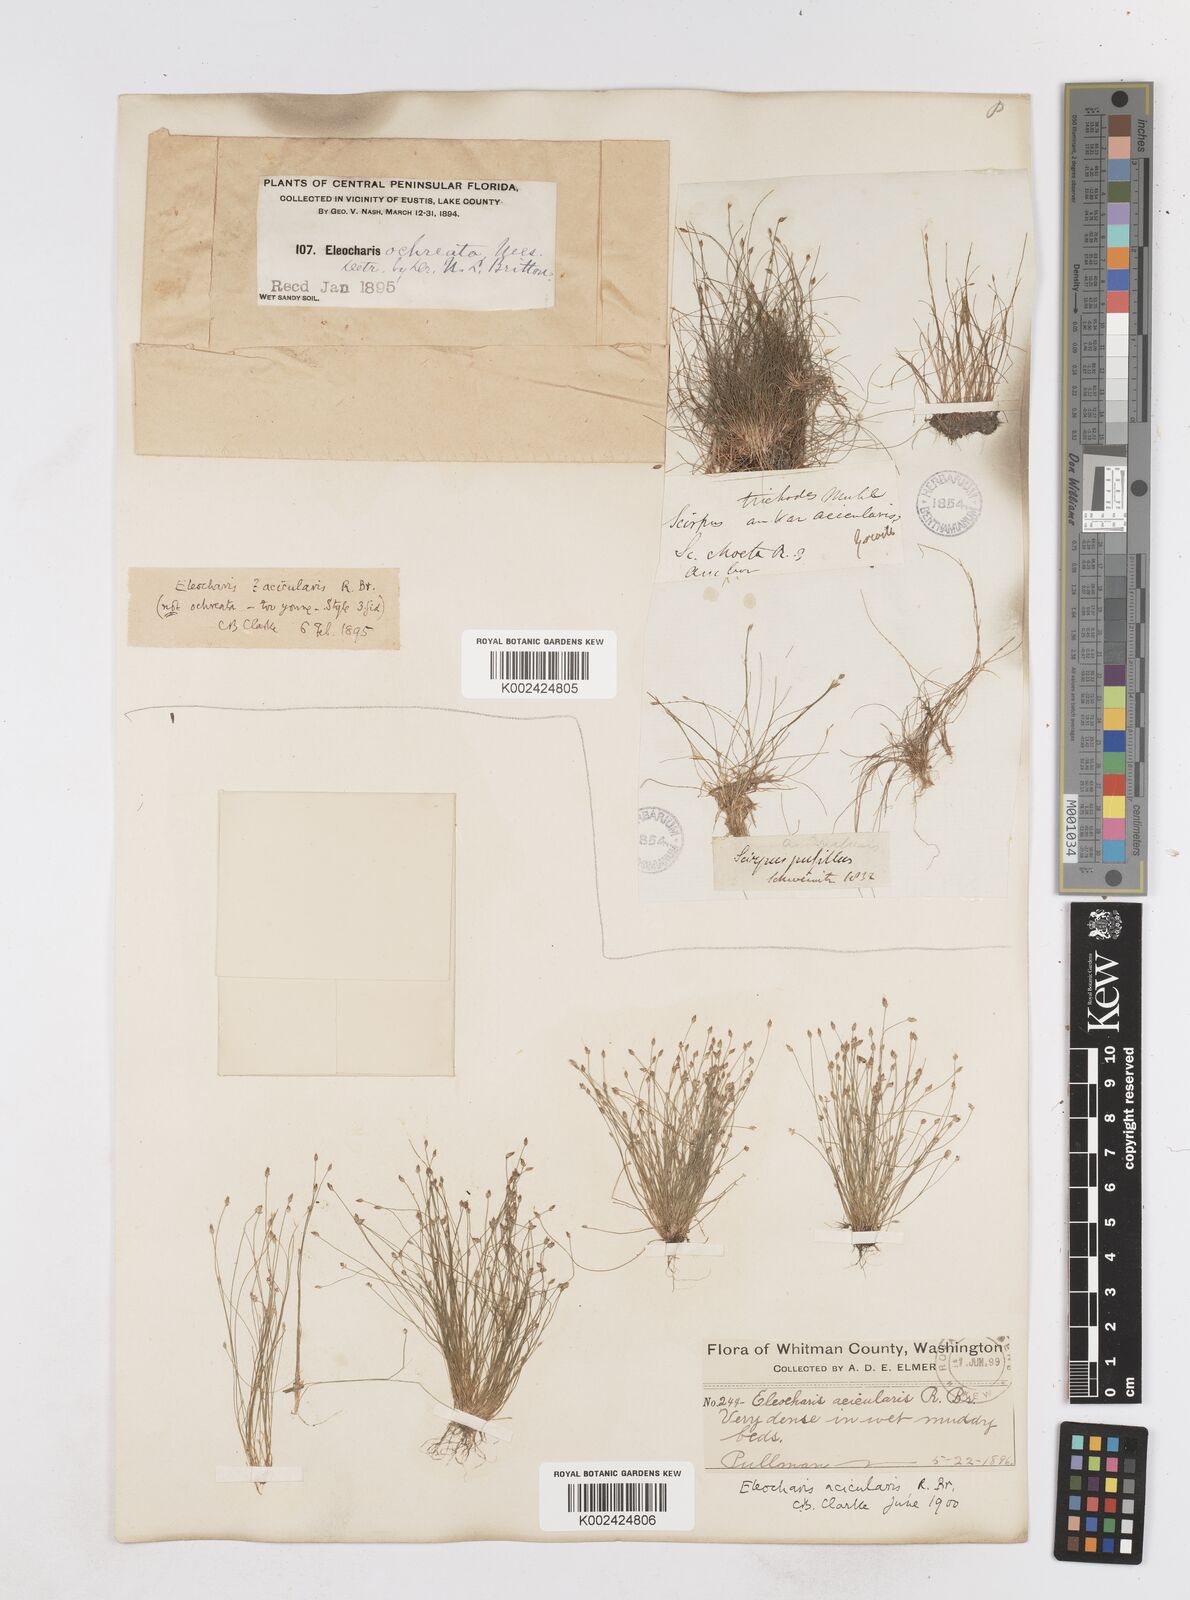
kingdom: Plantae
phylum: Tracheophyta
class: Liliopsida
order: Poales
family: Cyperaceae
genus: Eleocharis
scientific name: Eleocharis acicularis
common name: Needle spike-rush
